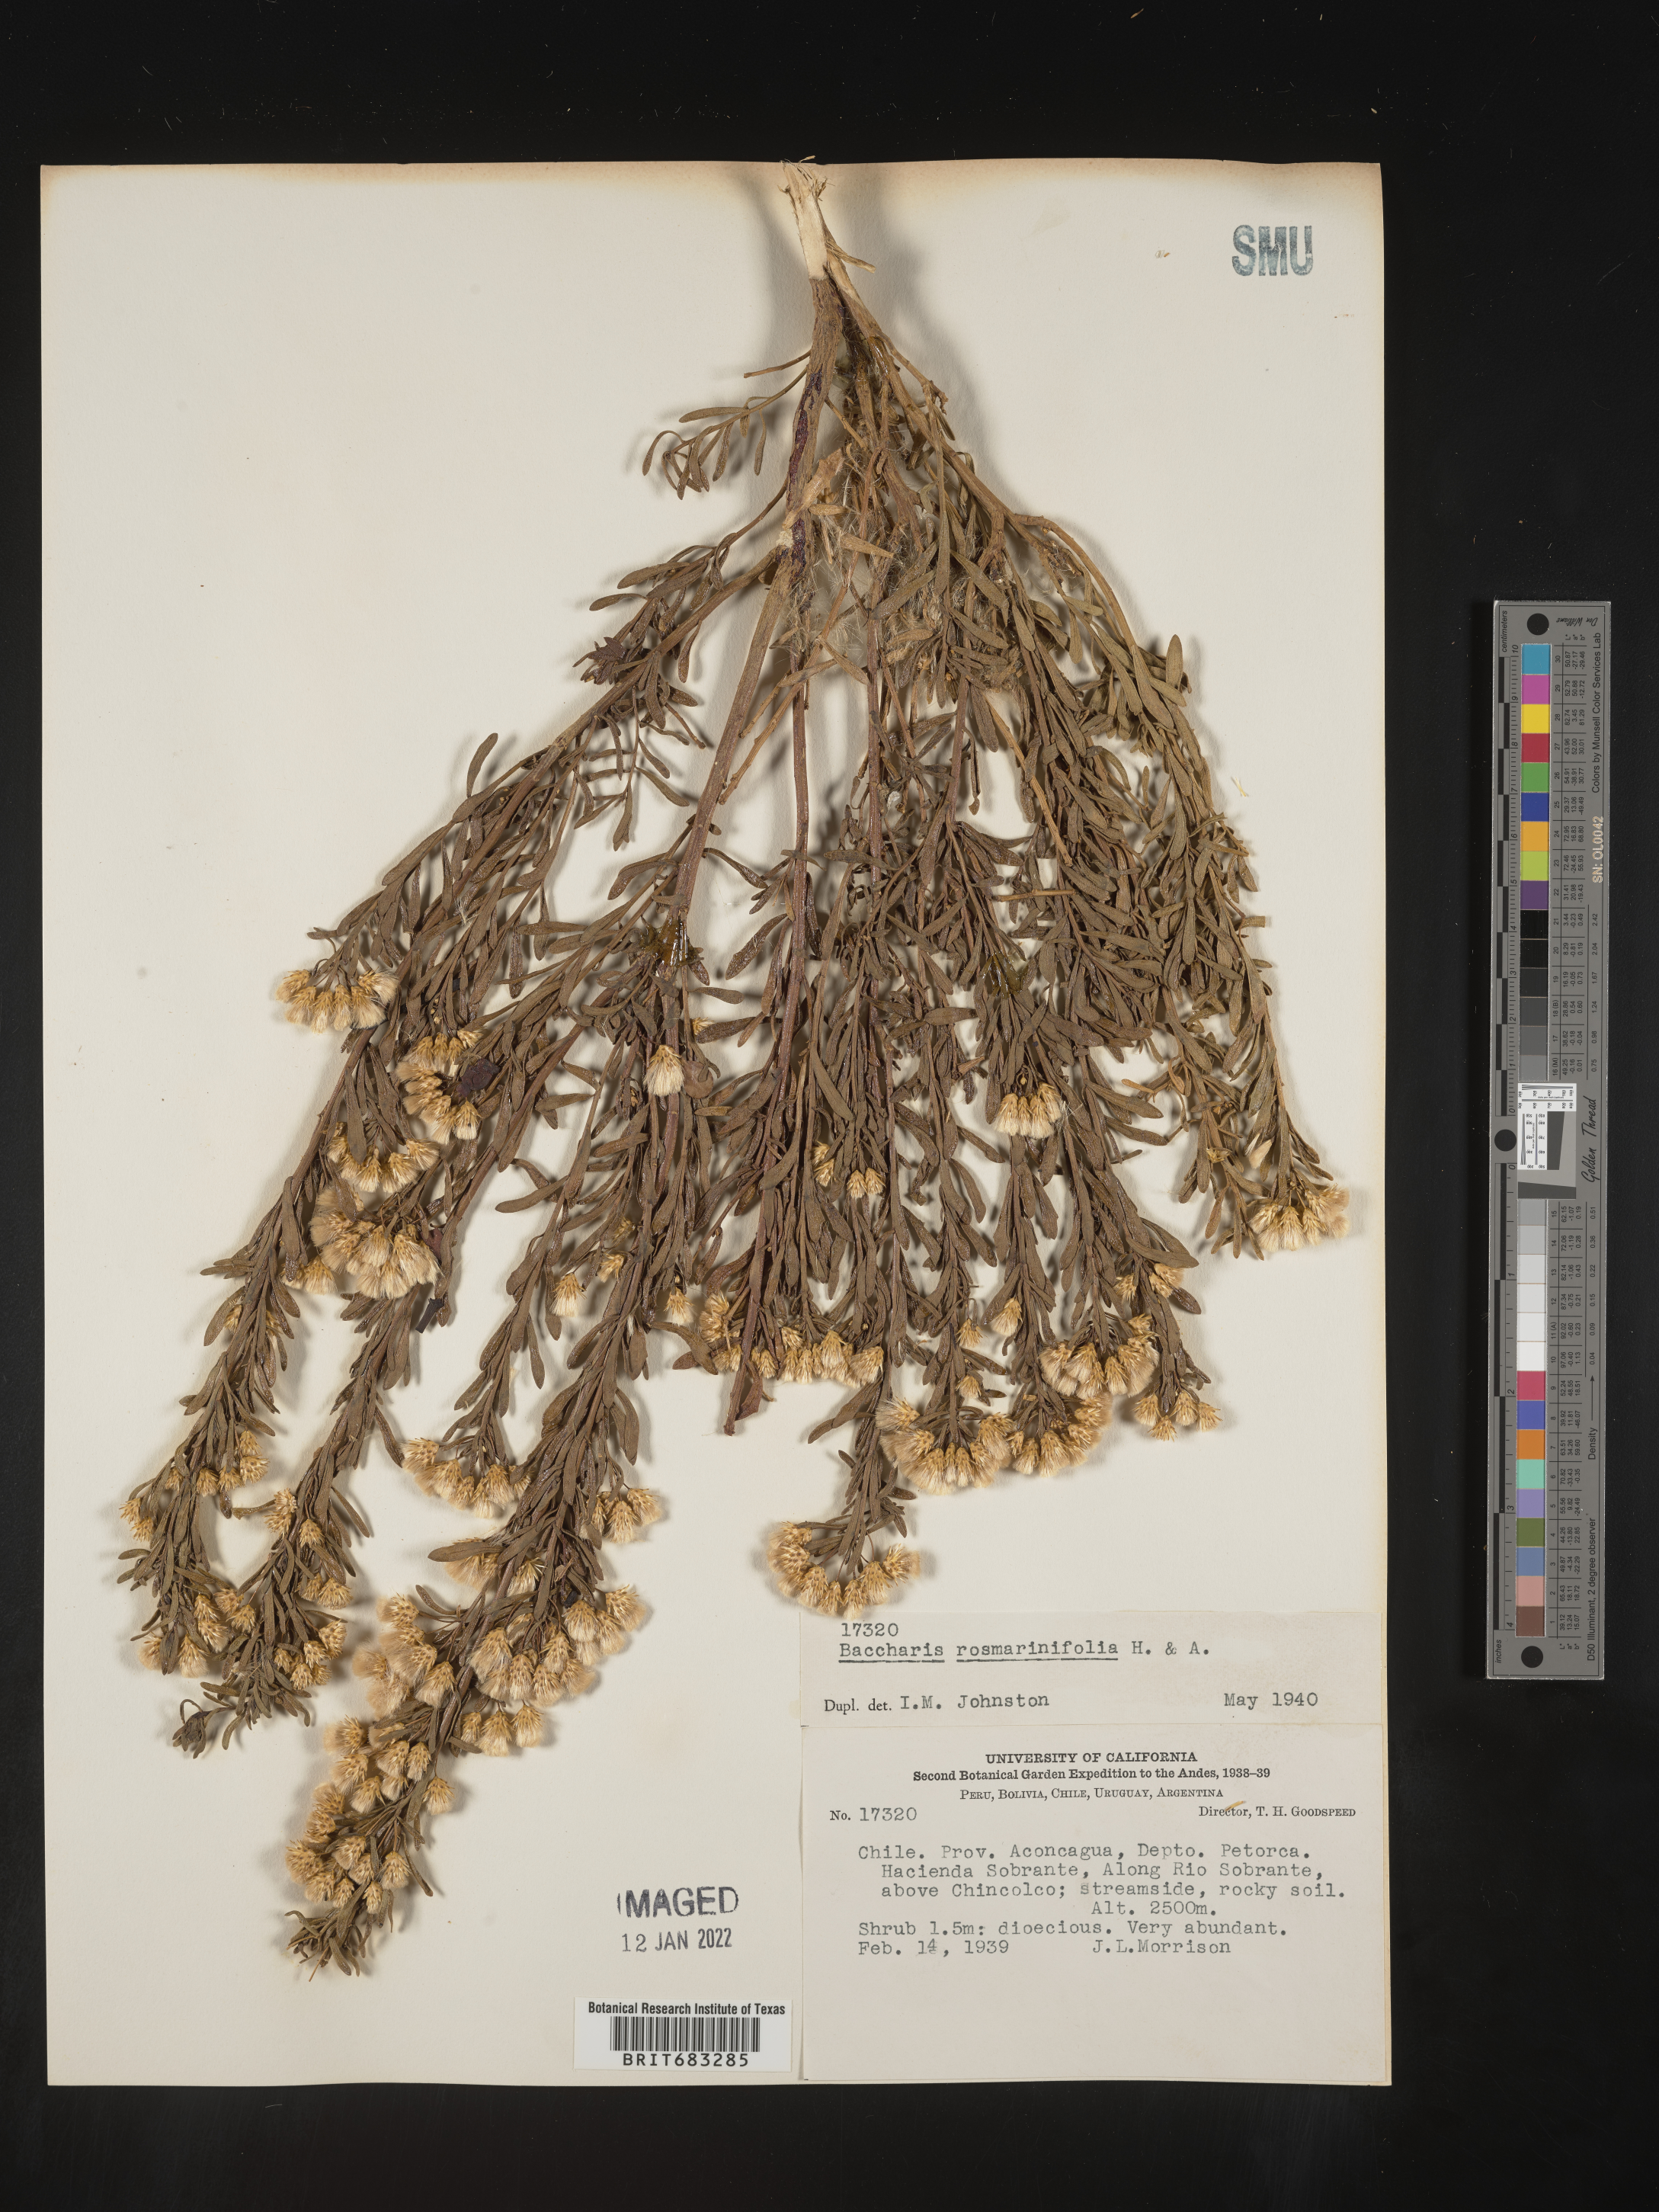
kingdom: Plantae
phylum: Tracheophyta
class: Magnoliopsida
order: Asterales
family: Asteraceae
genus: Baccharis
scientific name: Baccharis
